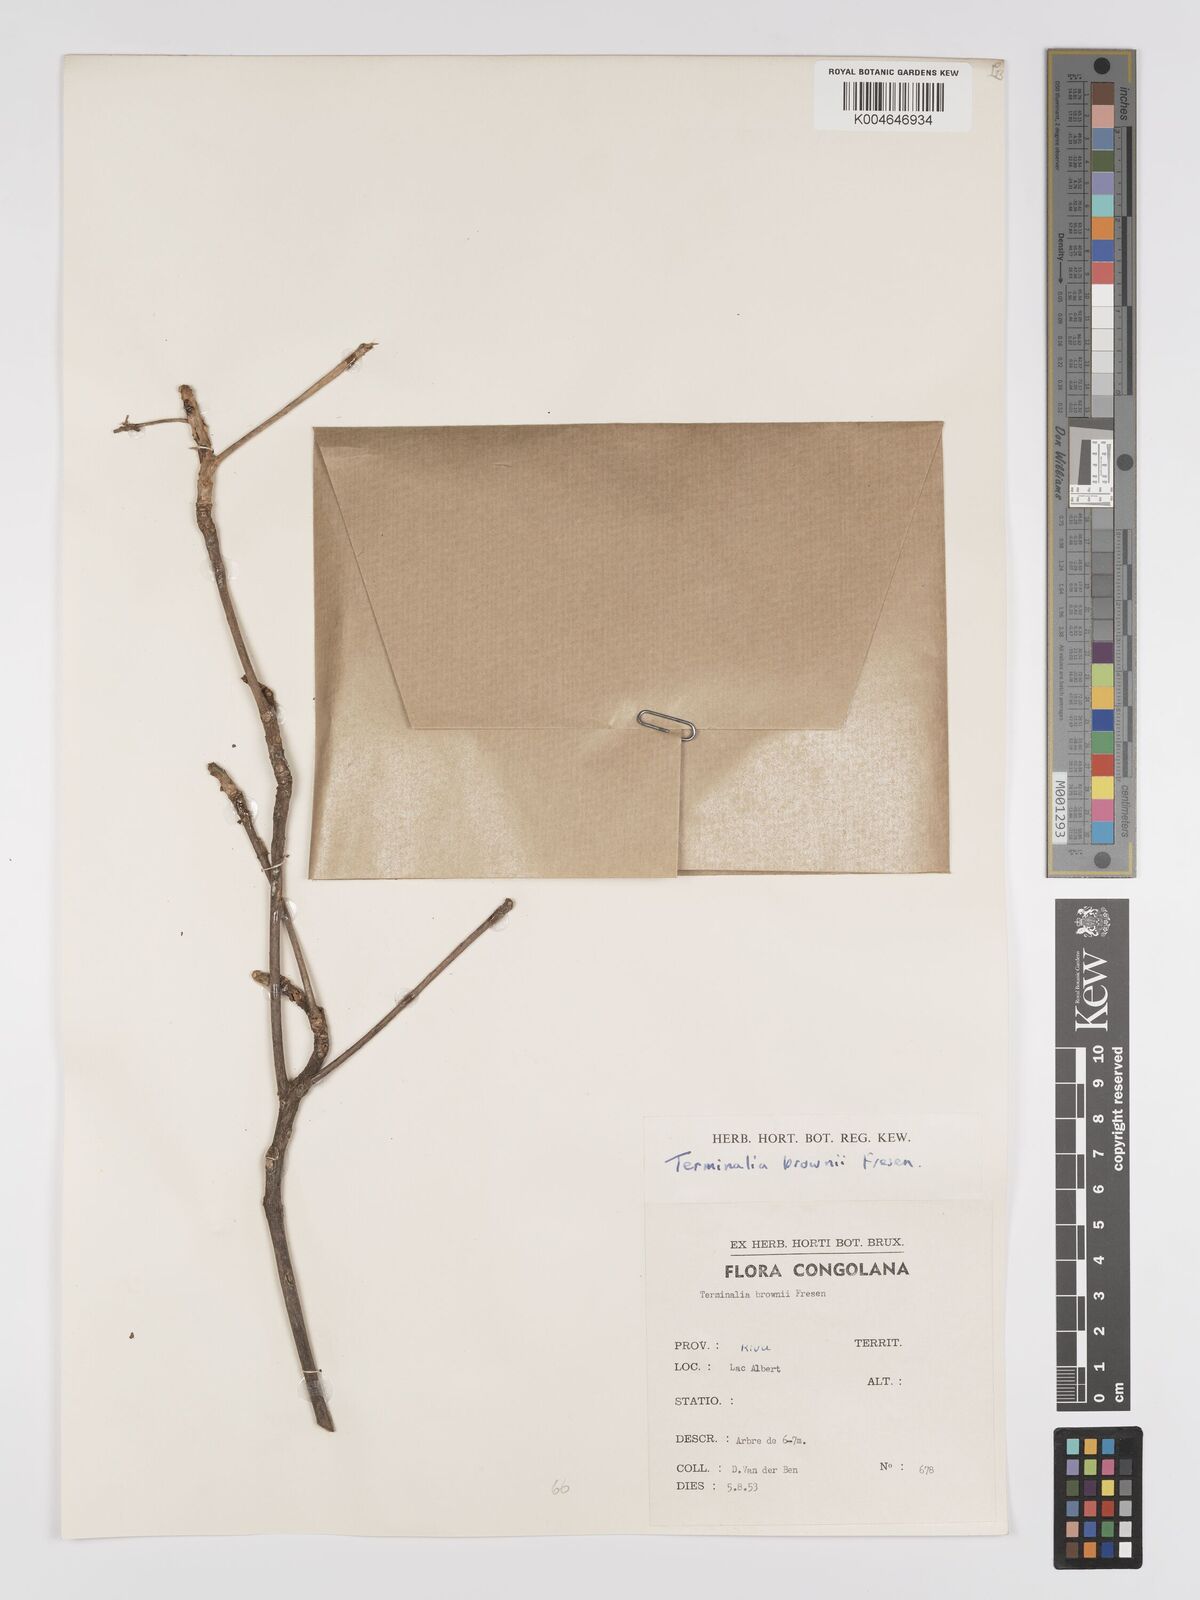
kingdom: Plantae
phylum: Tracheophyta
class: Magnoliopsida
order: Myrtales
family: Combretaceae
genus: Terminalia
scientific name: Terminalia brownii
